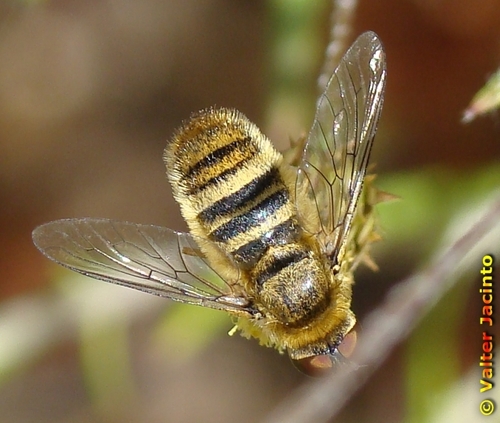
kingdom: Animalia
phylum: Arthropoda
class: Insecta
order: Diptera
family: Bombyliidae
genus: Villa
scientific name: Villa hottentotta
